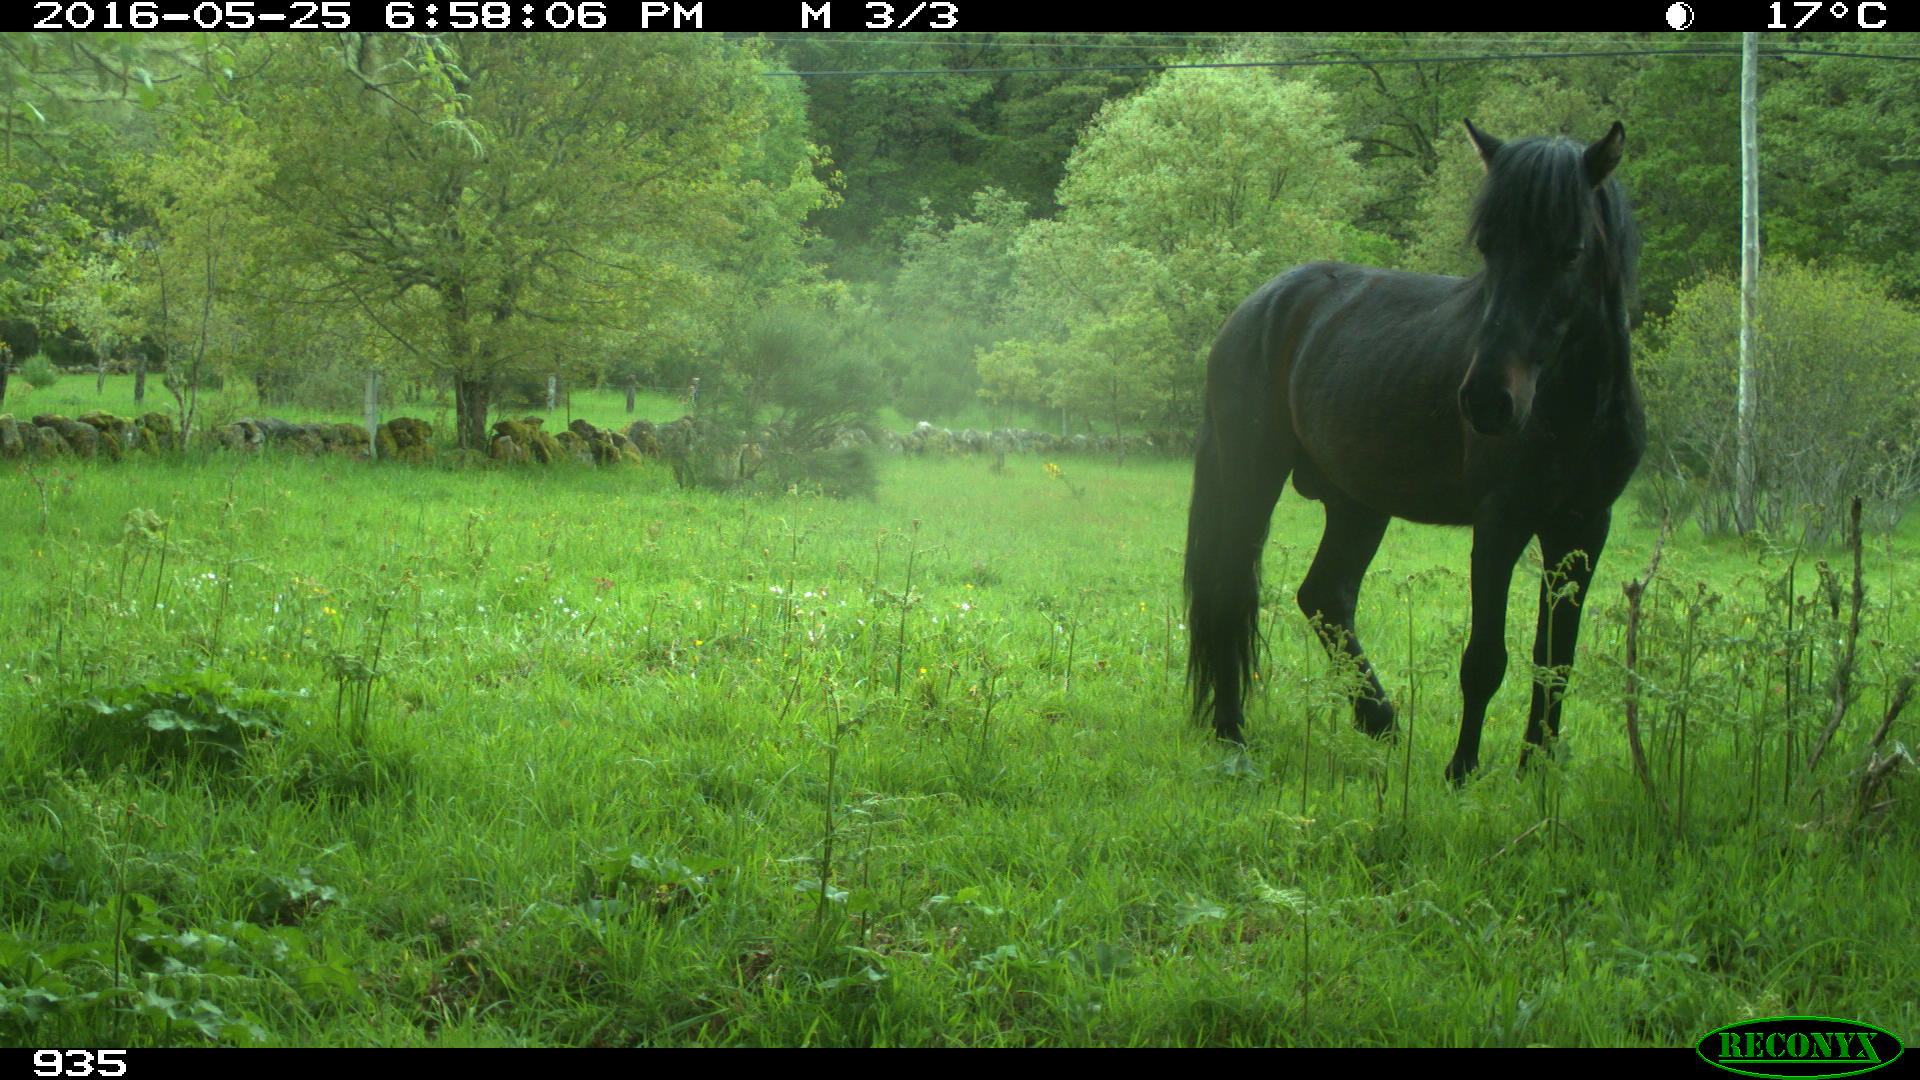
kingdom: Animalia
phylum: Chordata
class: Mammalia
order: Perissodactyla
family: Equidae
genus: Equus
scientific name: Equus caballus
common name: Horse
